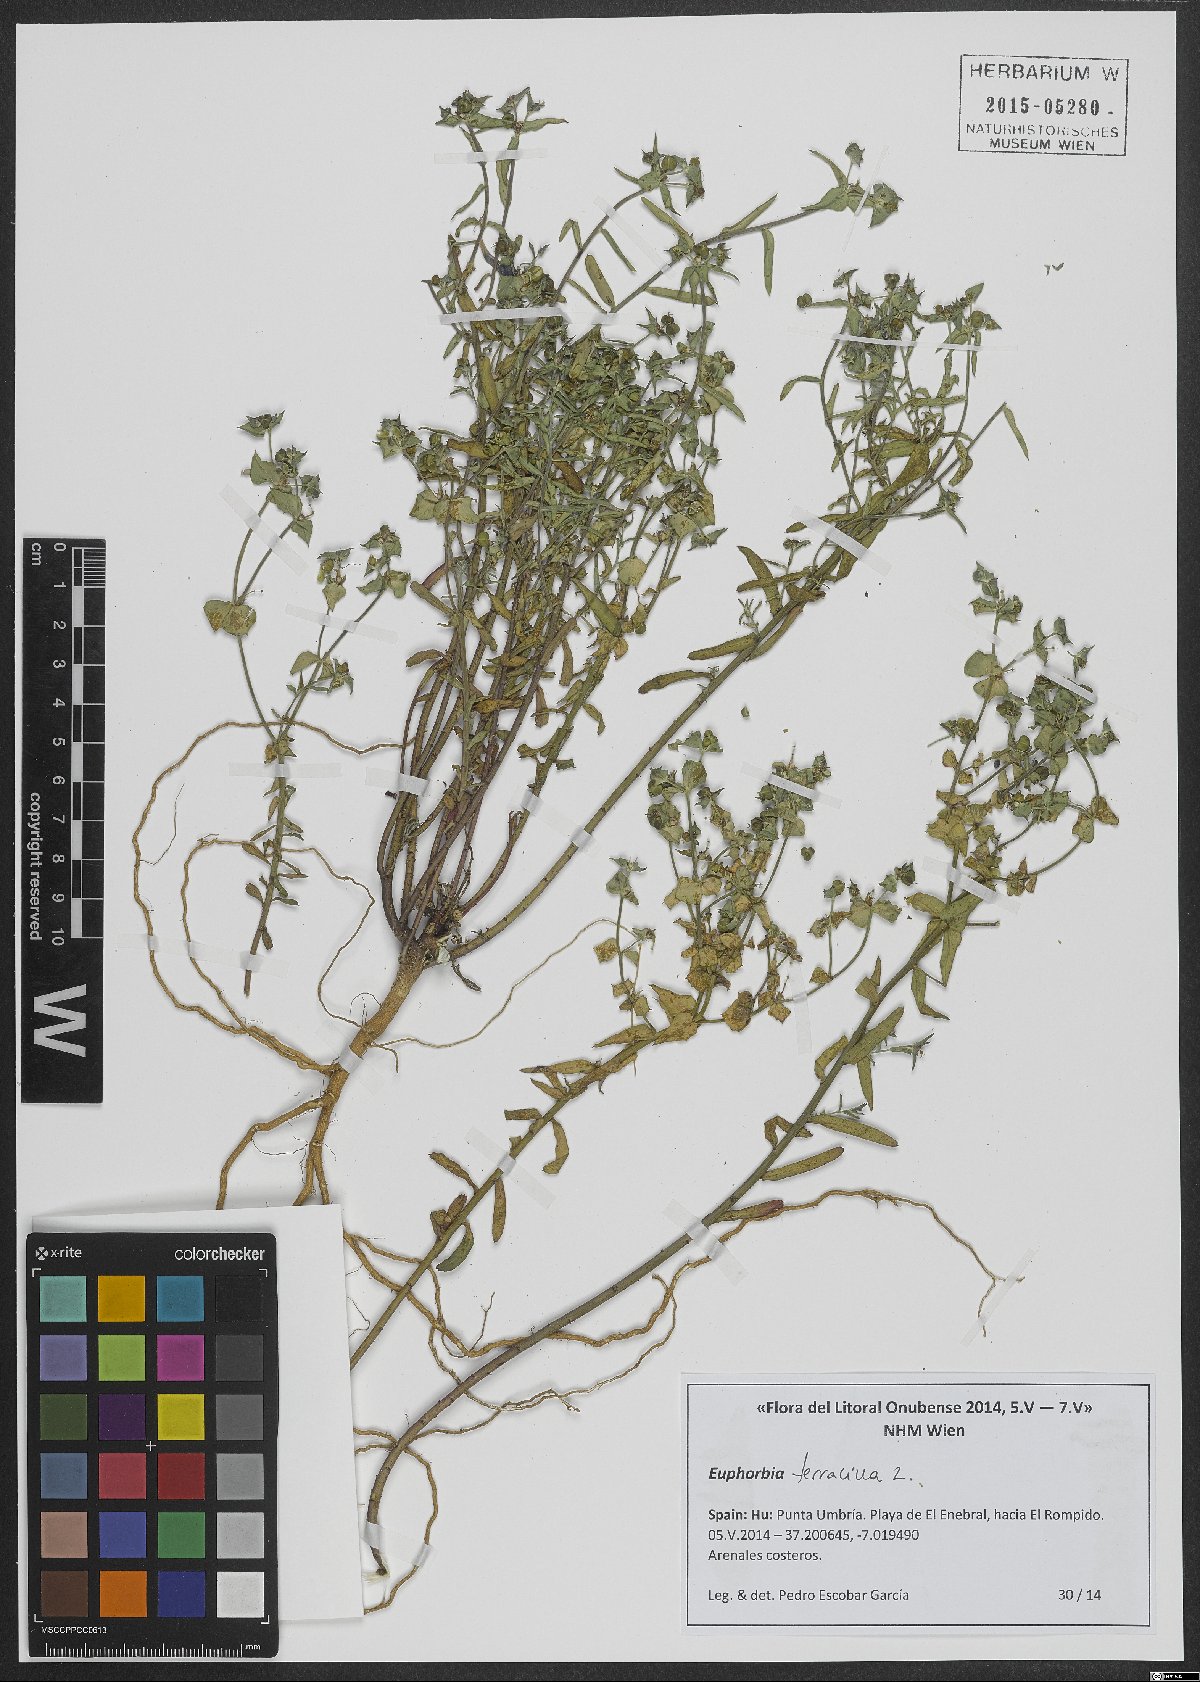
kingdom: Plantae
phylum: Tracheophyta
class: Magnoliopsida
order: Malpighiales
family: Euphorbiaceae
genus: Euphorbia
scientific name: Euphorbia terracina
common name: Geraldton carnation weed
